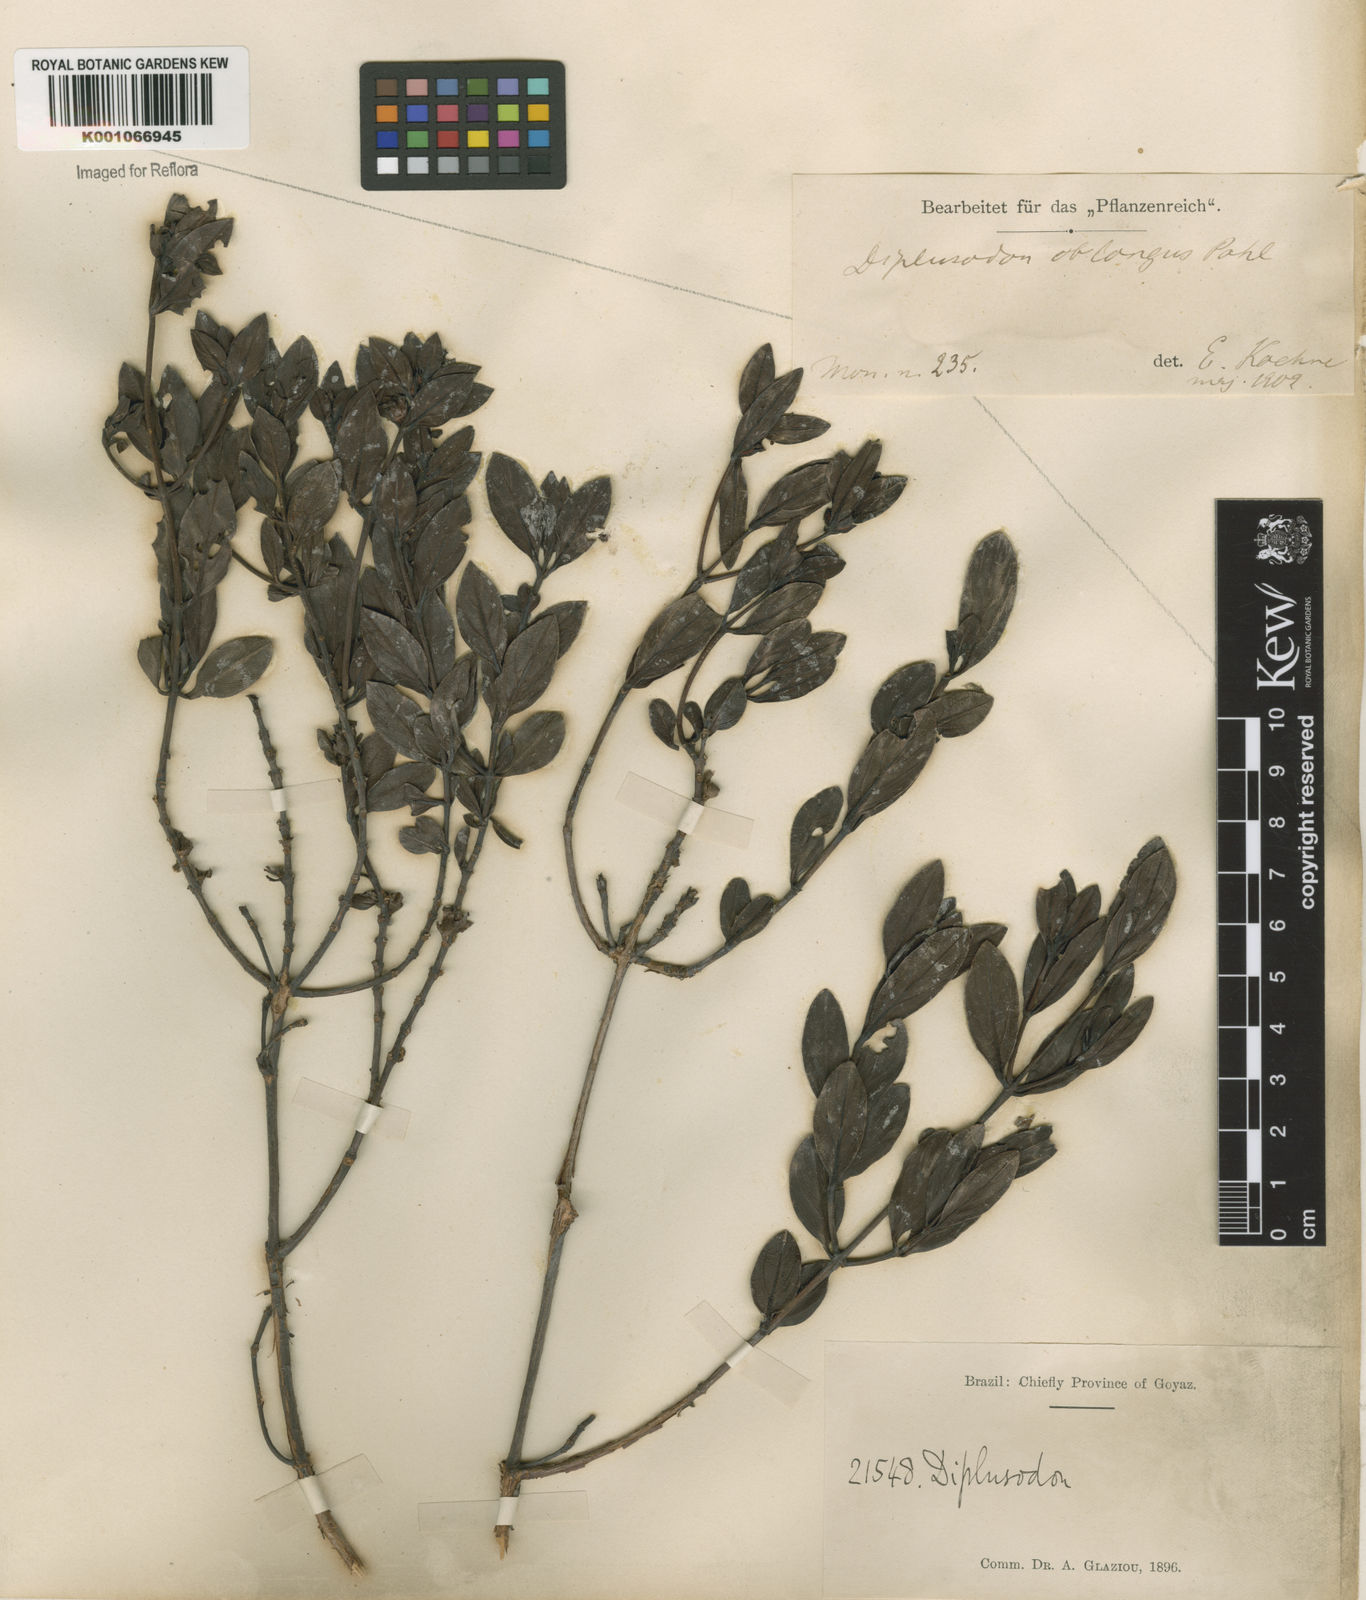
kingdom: Plantae
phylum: Tracheophyta
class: Magnoliopsida
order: Myrtales
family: Lythraceae
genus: Diplusodon
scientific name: Diplusodon oblongus
